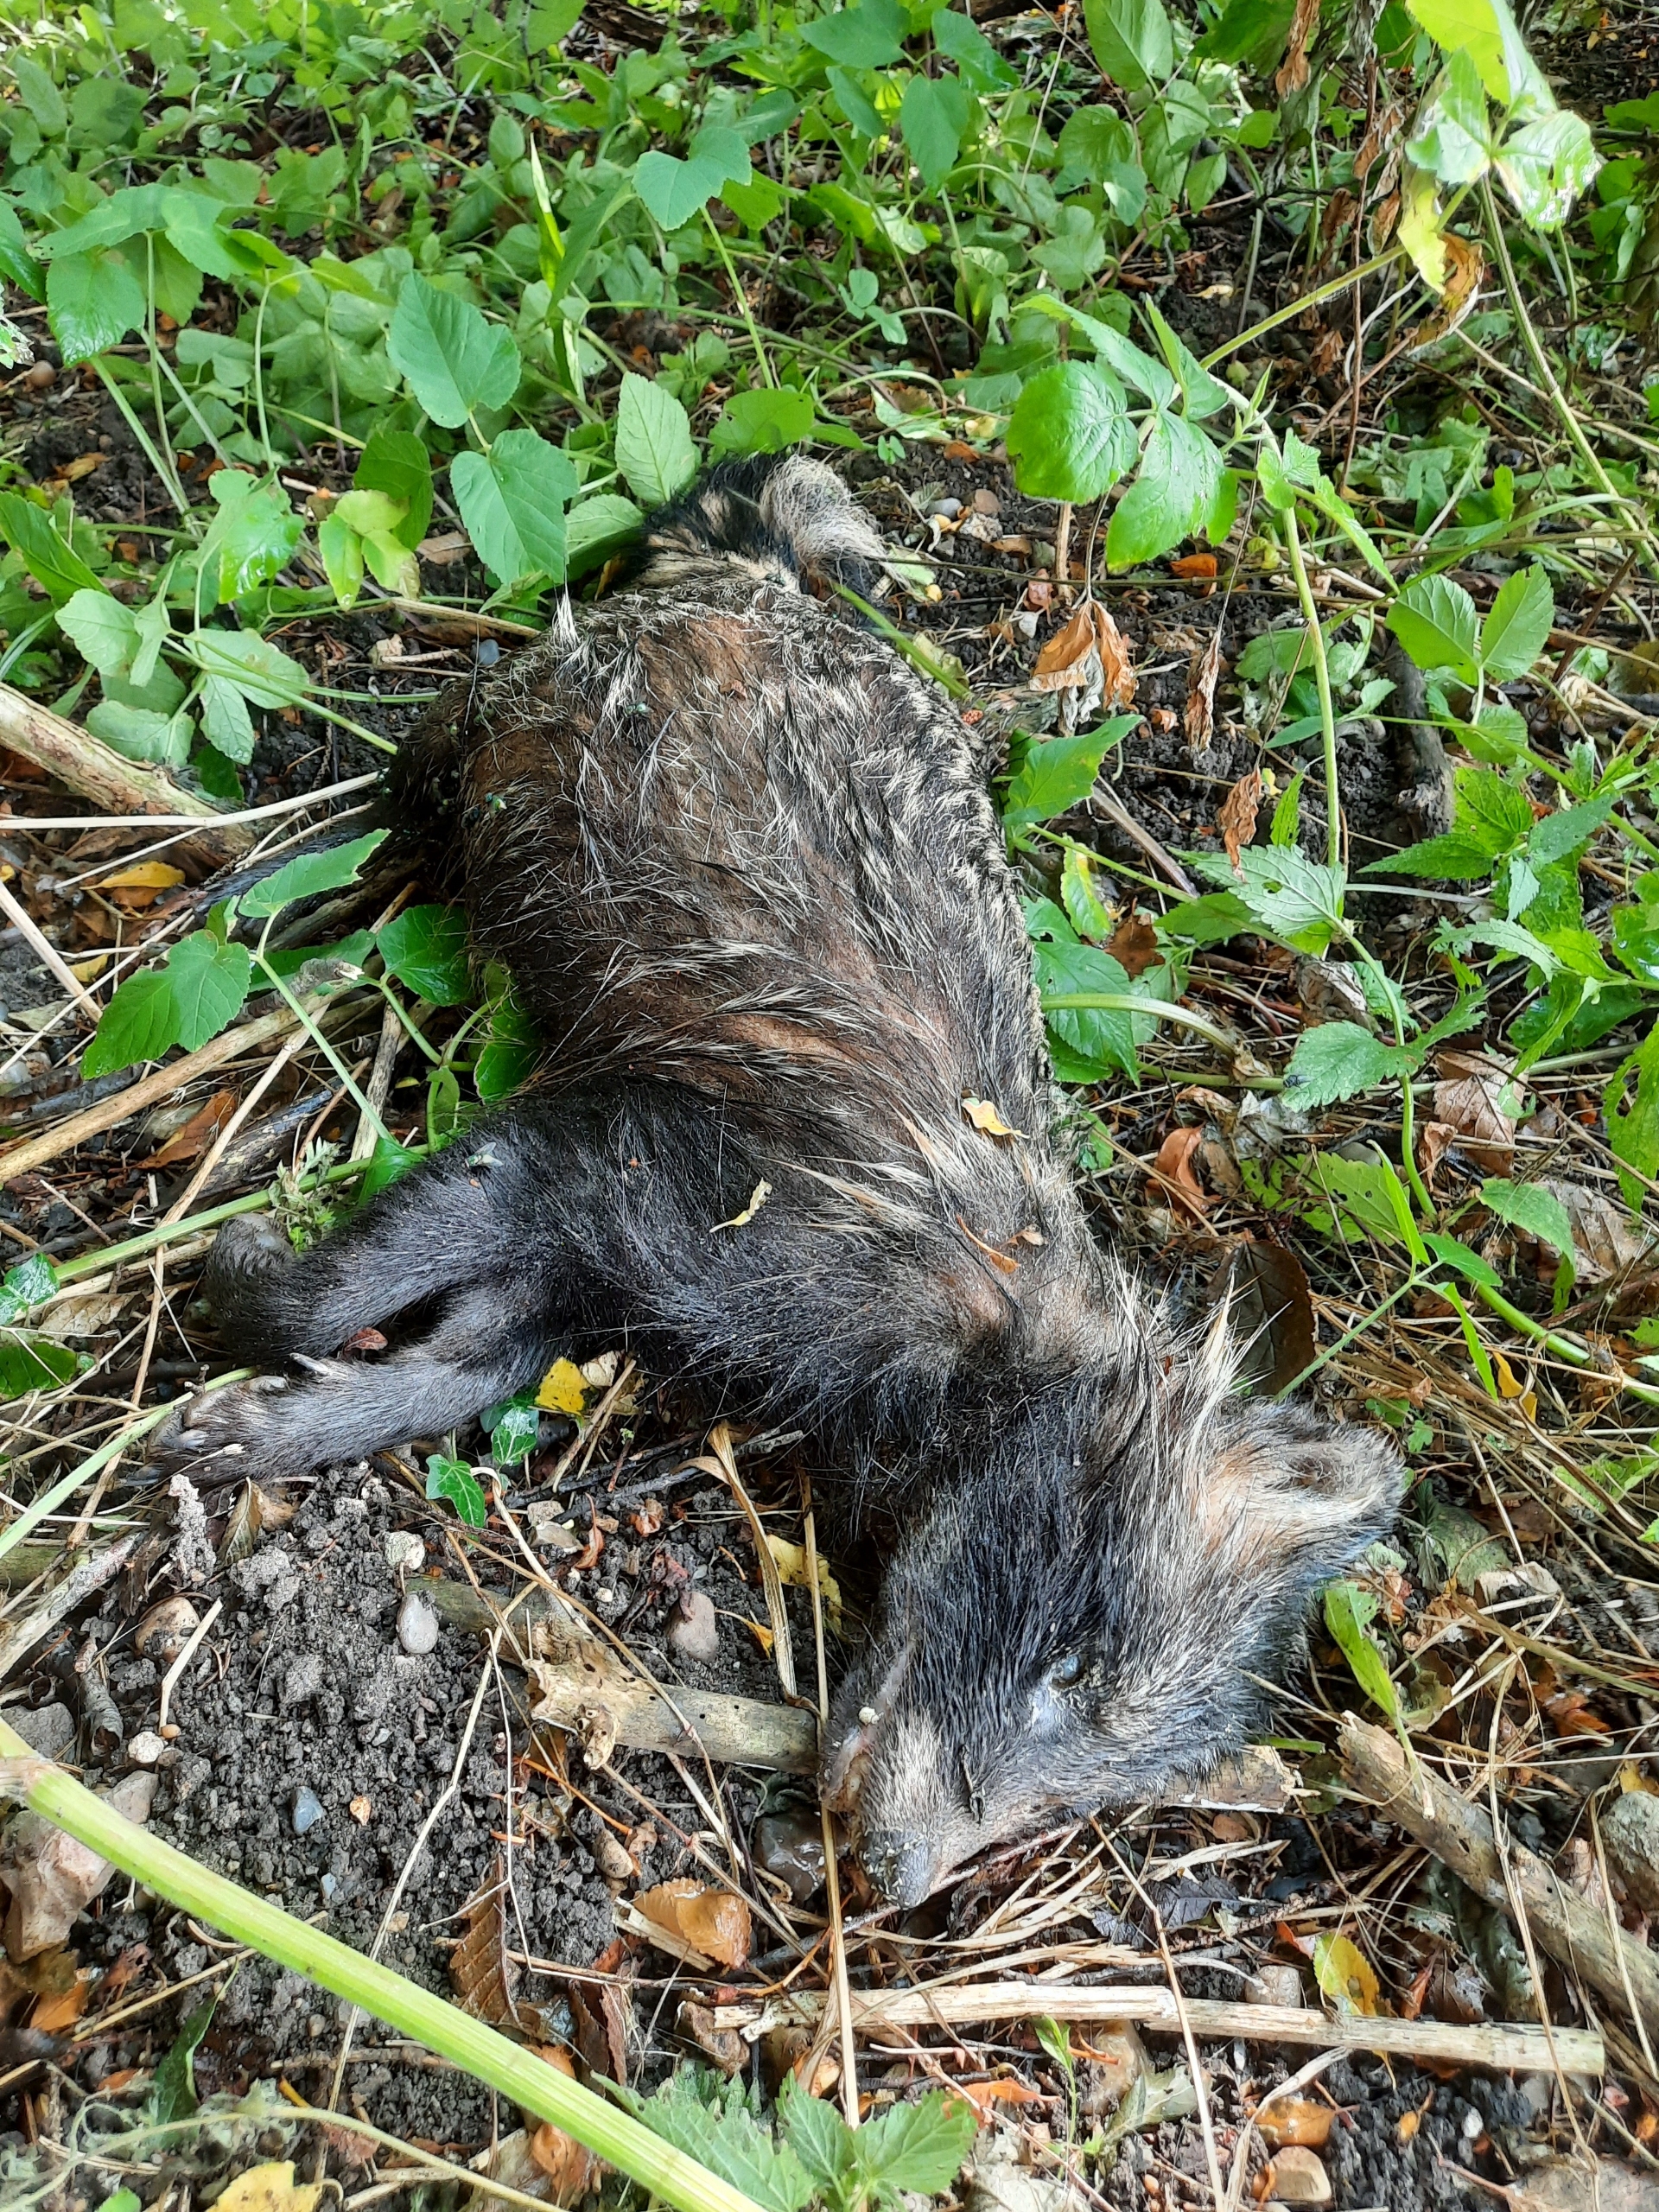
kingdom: Animalia
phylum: Chordata
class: Mammalia
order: Carnivora
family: Canidae
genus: Nyctereutes
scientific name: Nyctereutes procyonoides
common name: Mårhund
